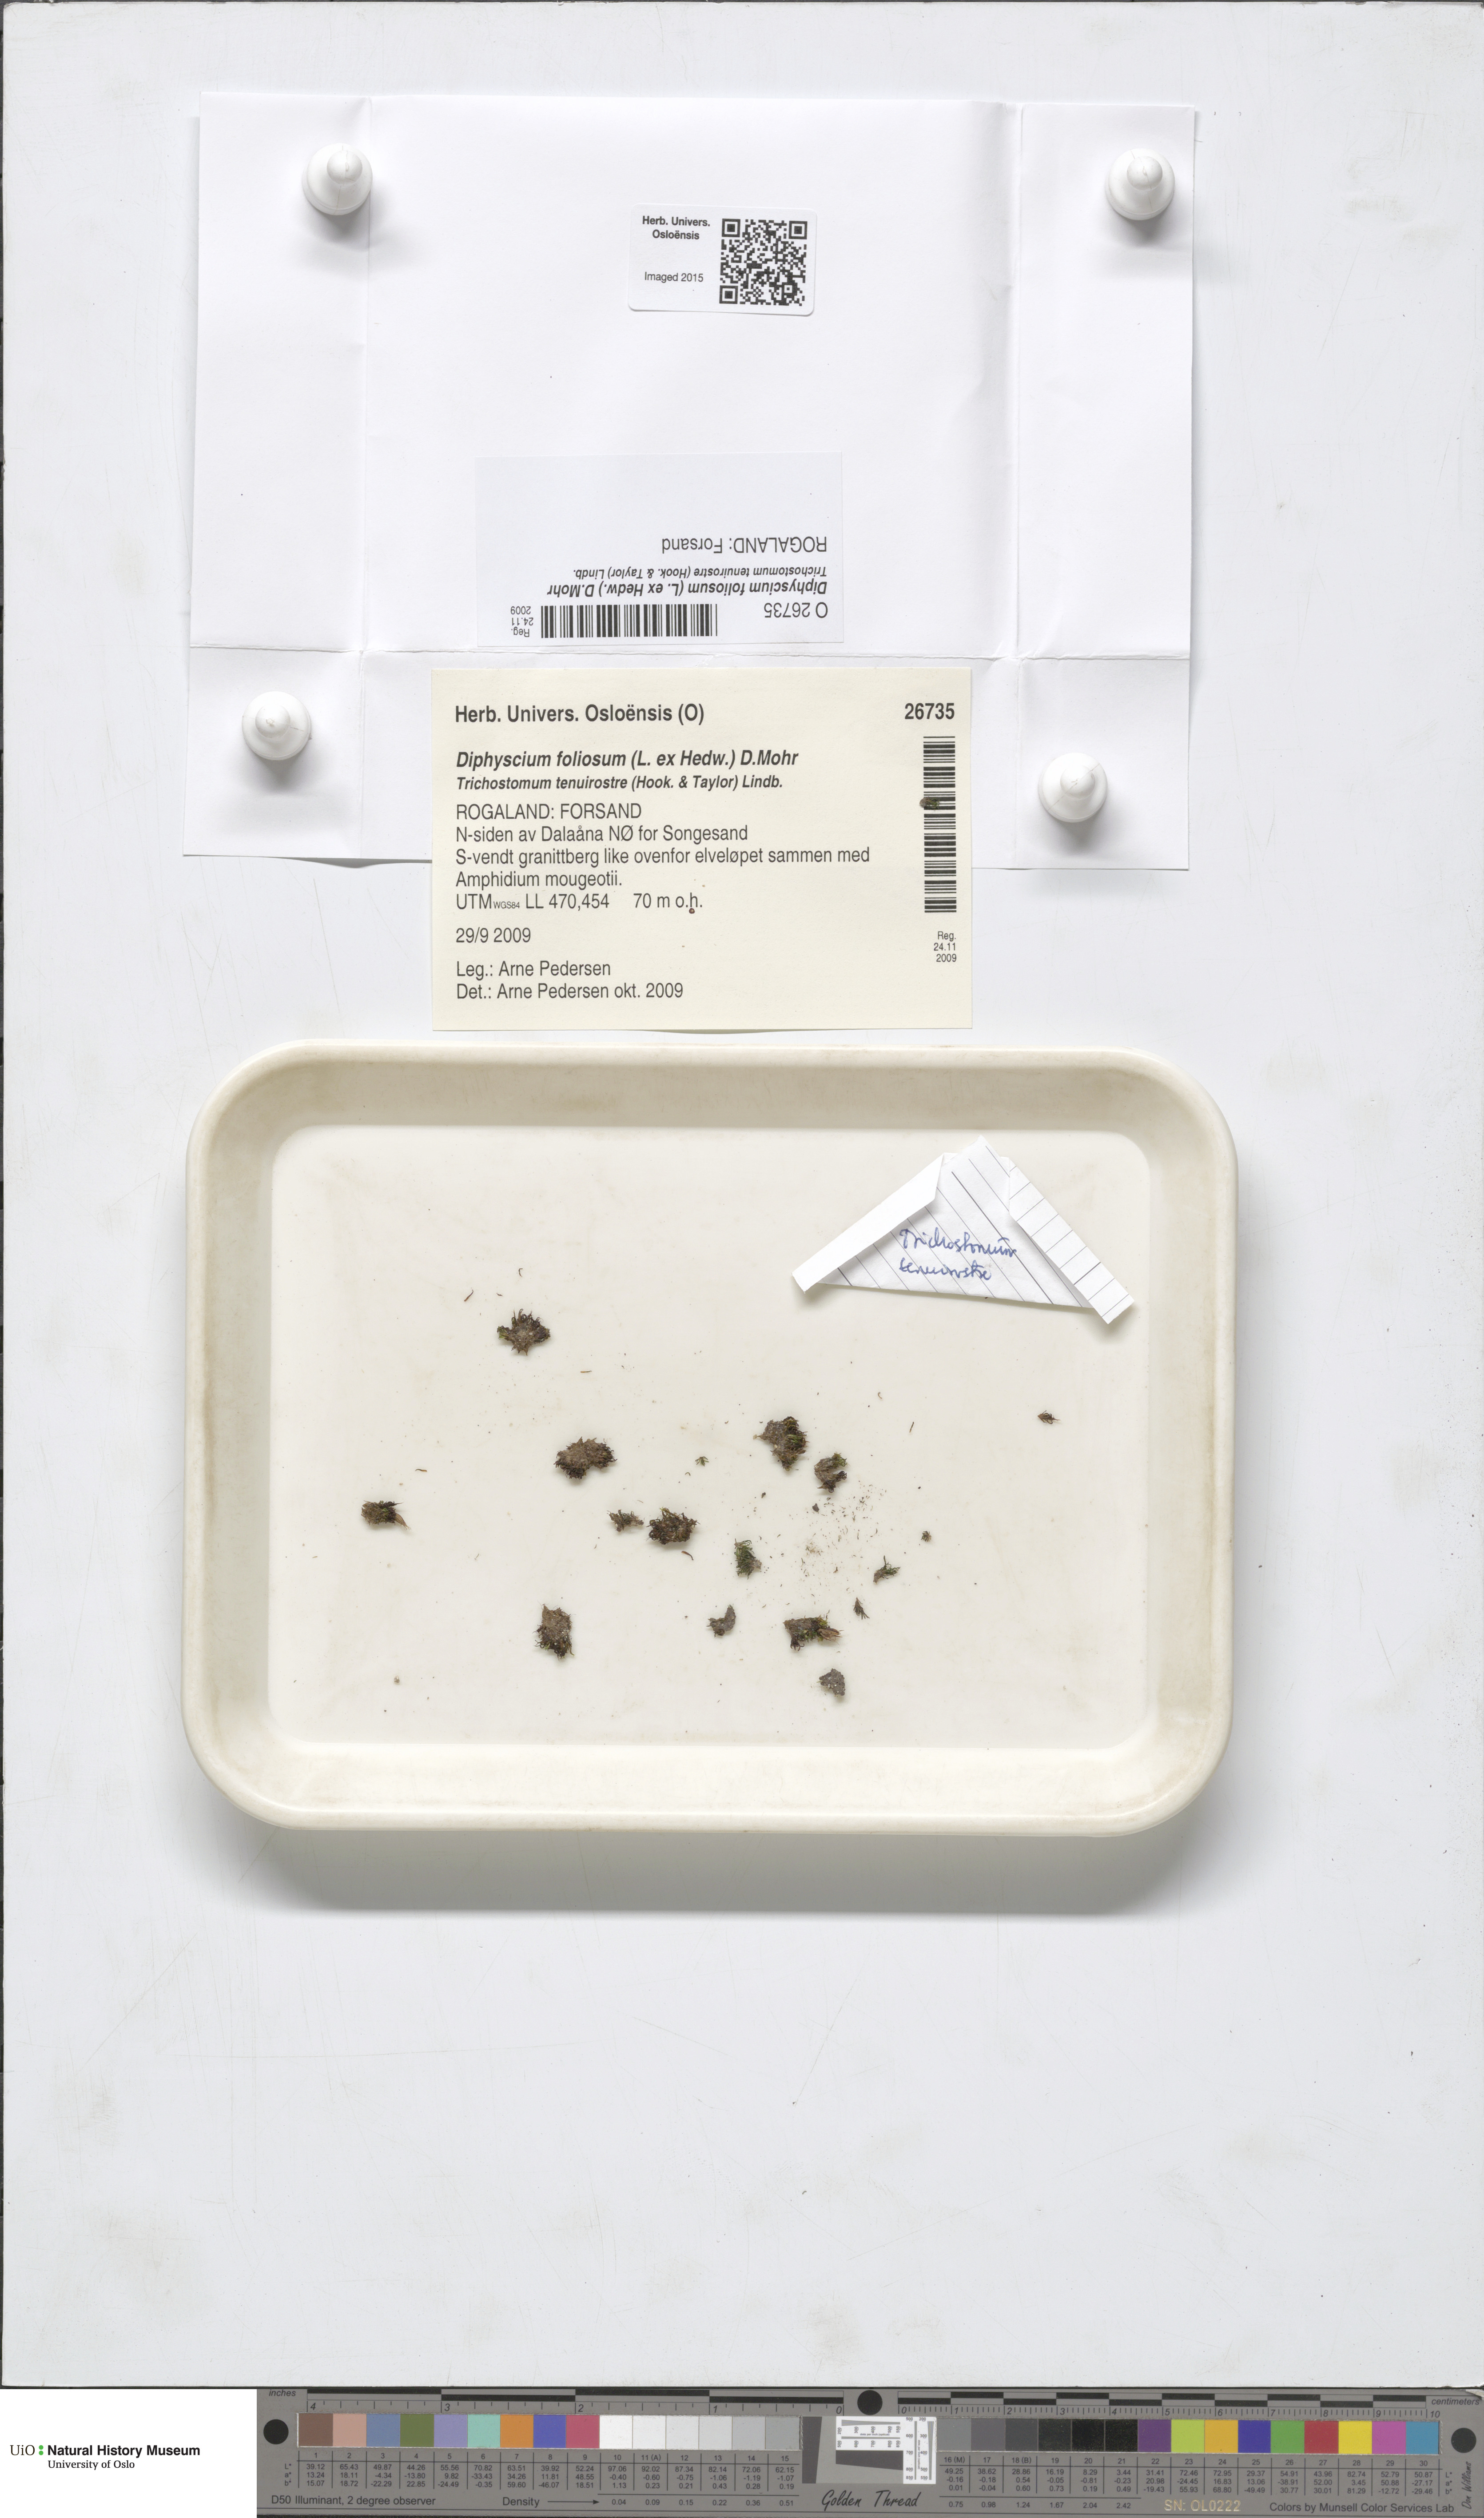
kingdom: Plantae
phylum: Bryophyta
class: Bryopsida
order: Diphysciales
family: Diphysciaceae
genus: Diphyscium
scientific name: Diphyscium foliosum
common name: Nut moss
